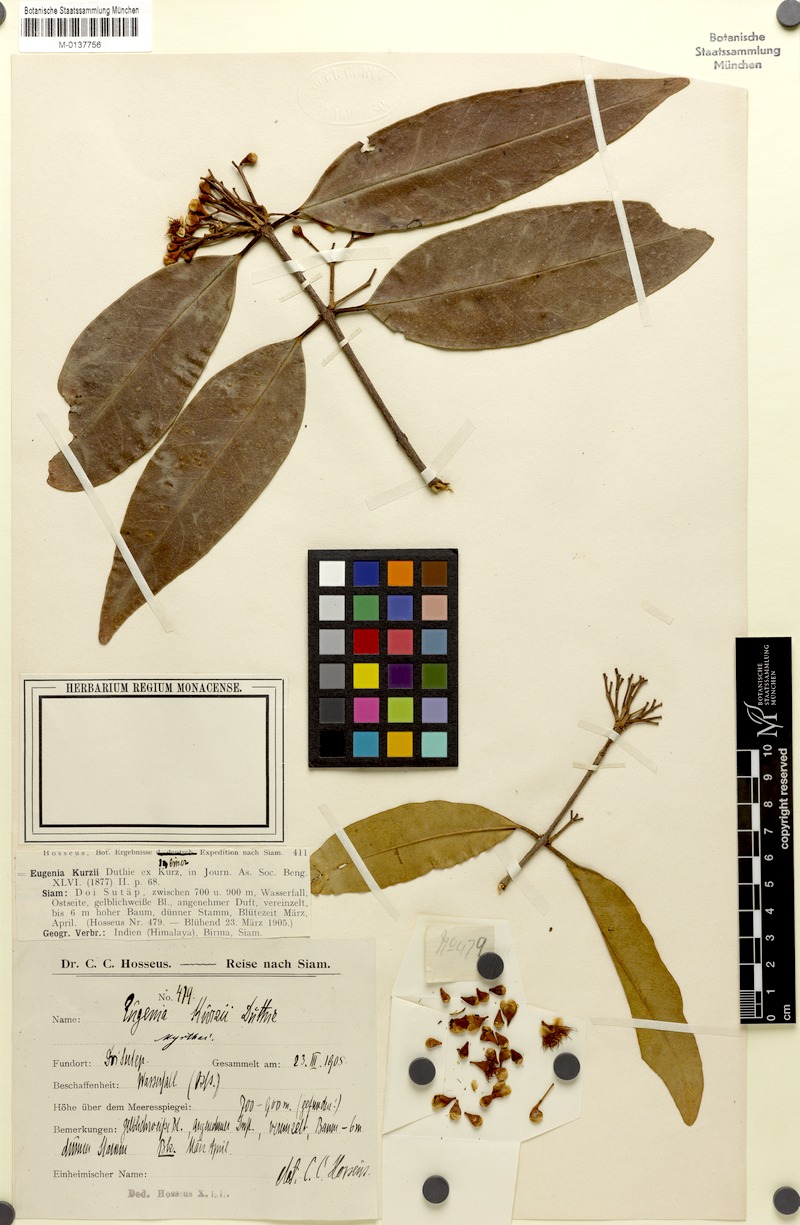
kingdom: Plantae
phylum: Tracheophyta
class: Magnoliopsida
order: Myrtales
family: Myrtaceae
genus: Syzygium
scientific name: Syzygium kurzii
